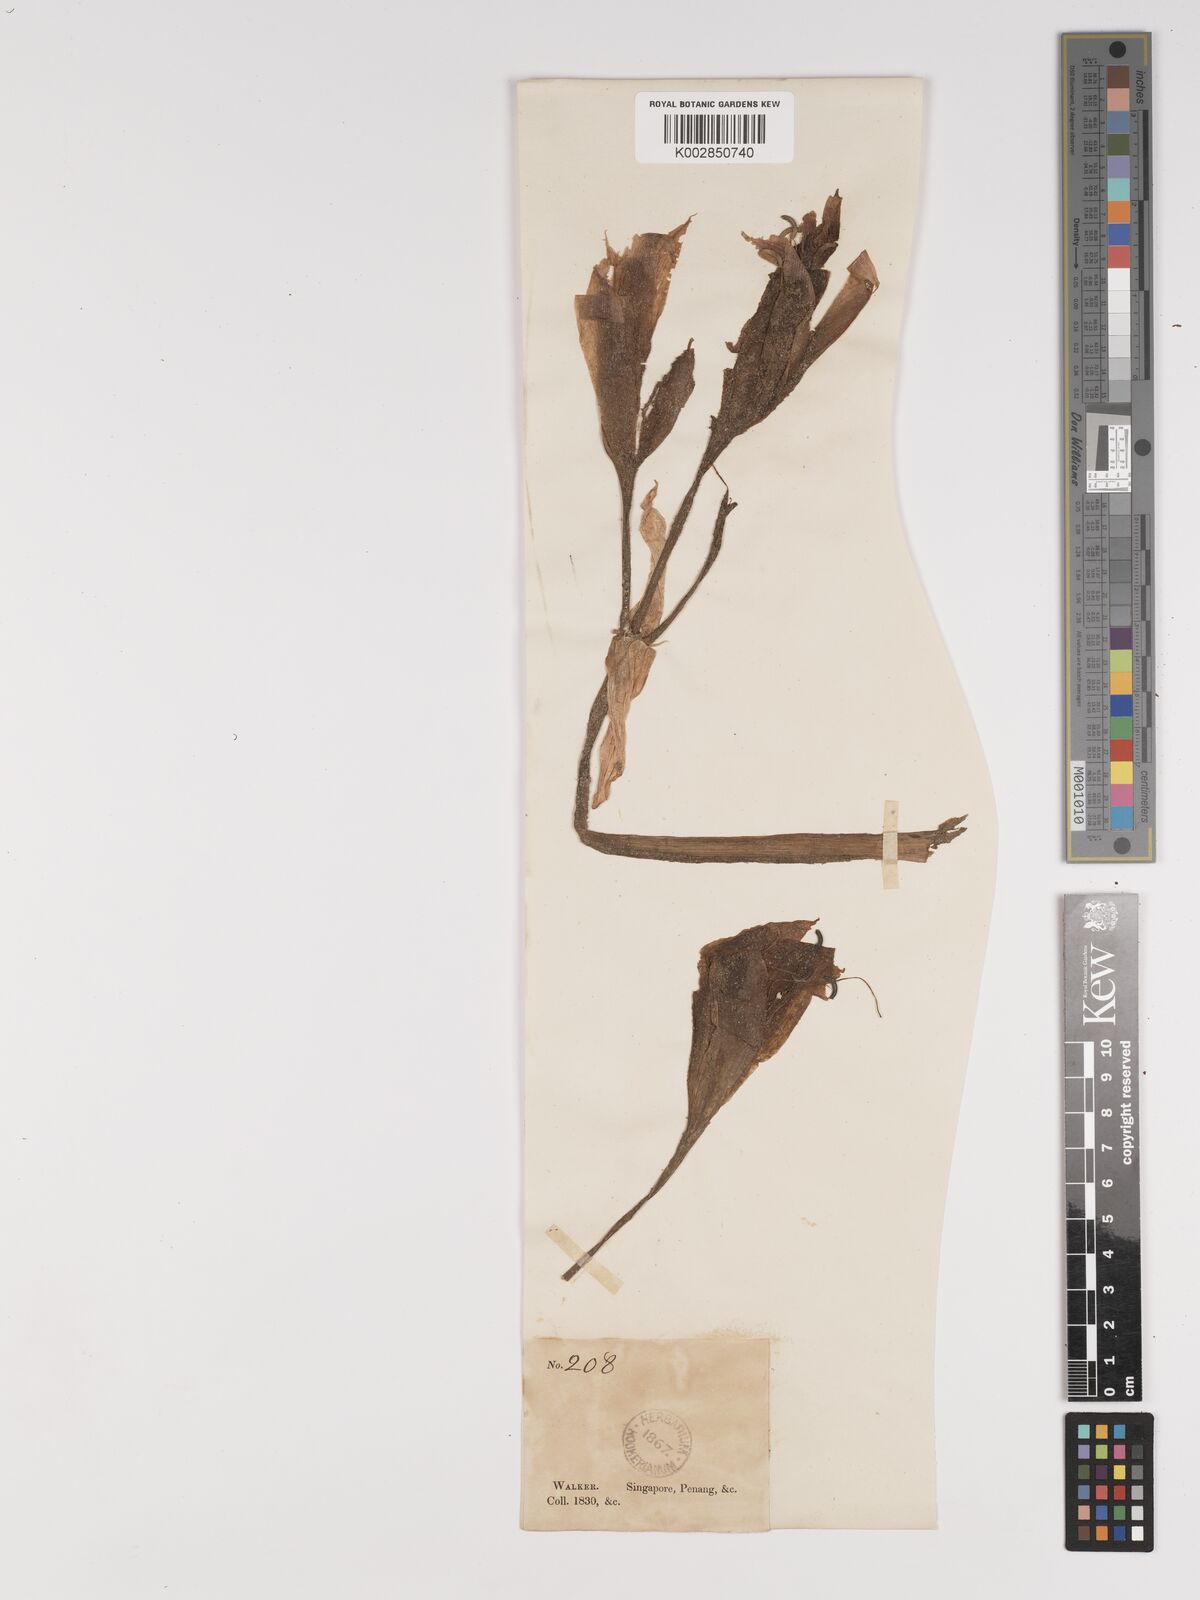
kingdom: Plantae
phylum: Tracheophyta
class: Liliopsida
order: Asparagales
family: Amaryllidaceae
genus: Crinum
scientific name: Crinum zeylanicum
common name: Ceylon swamplily
